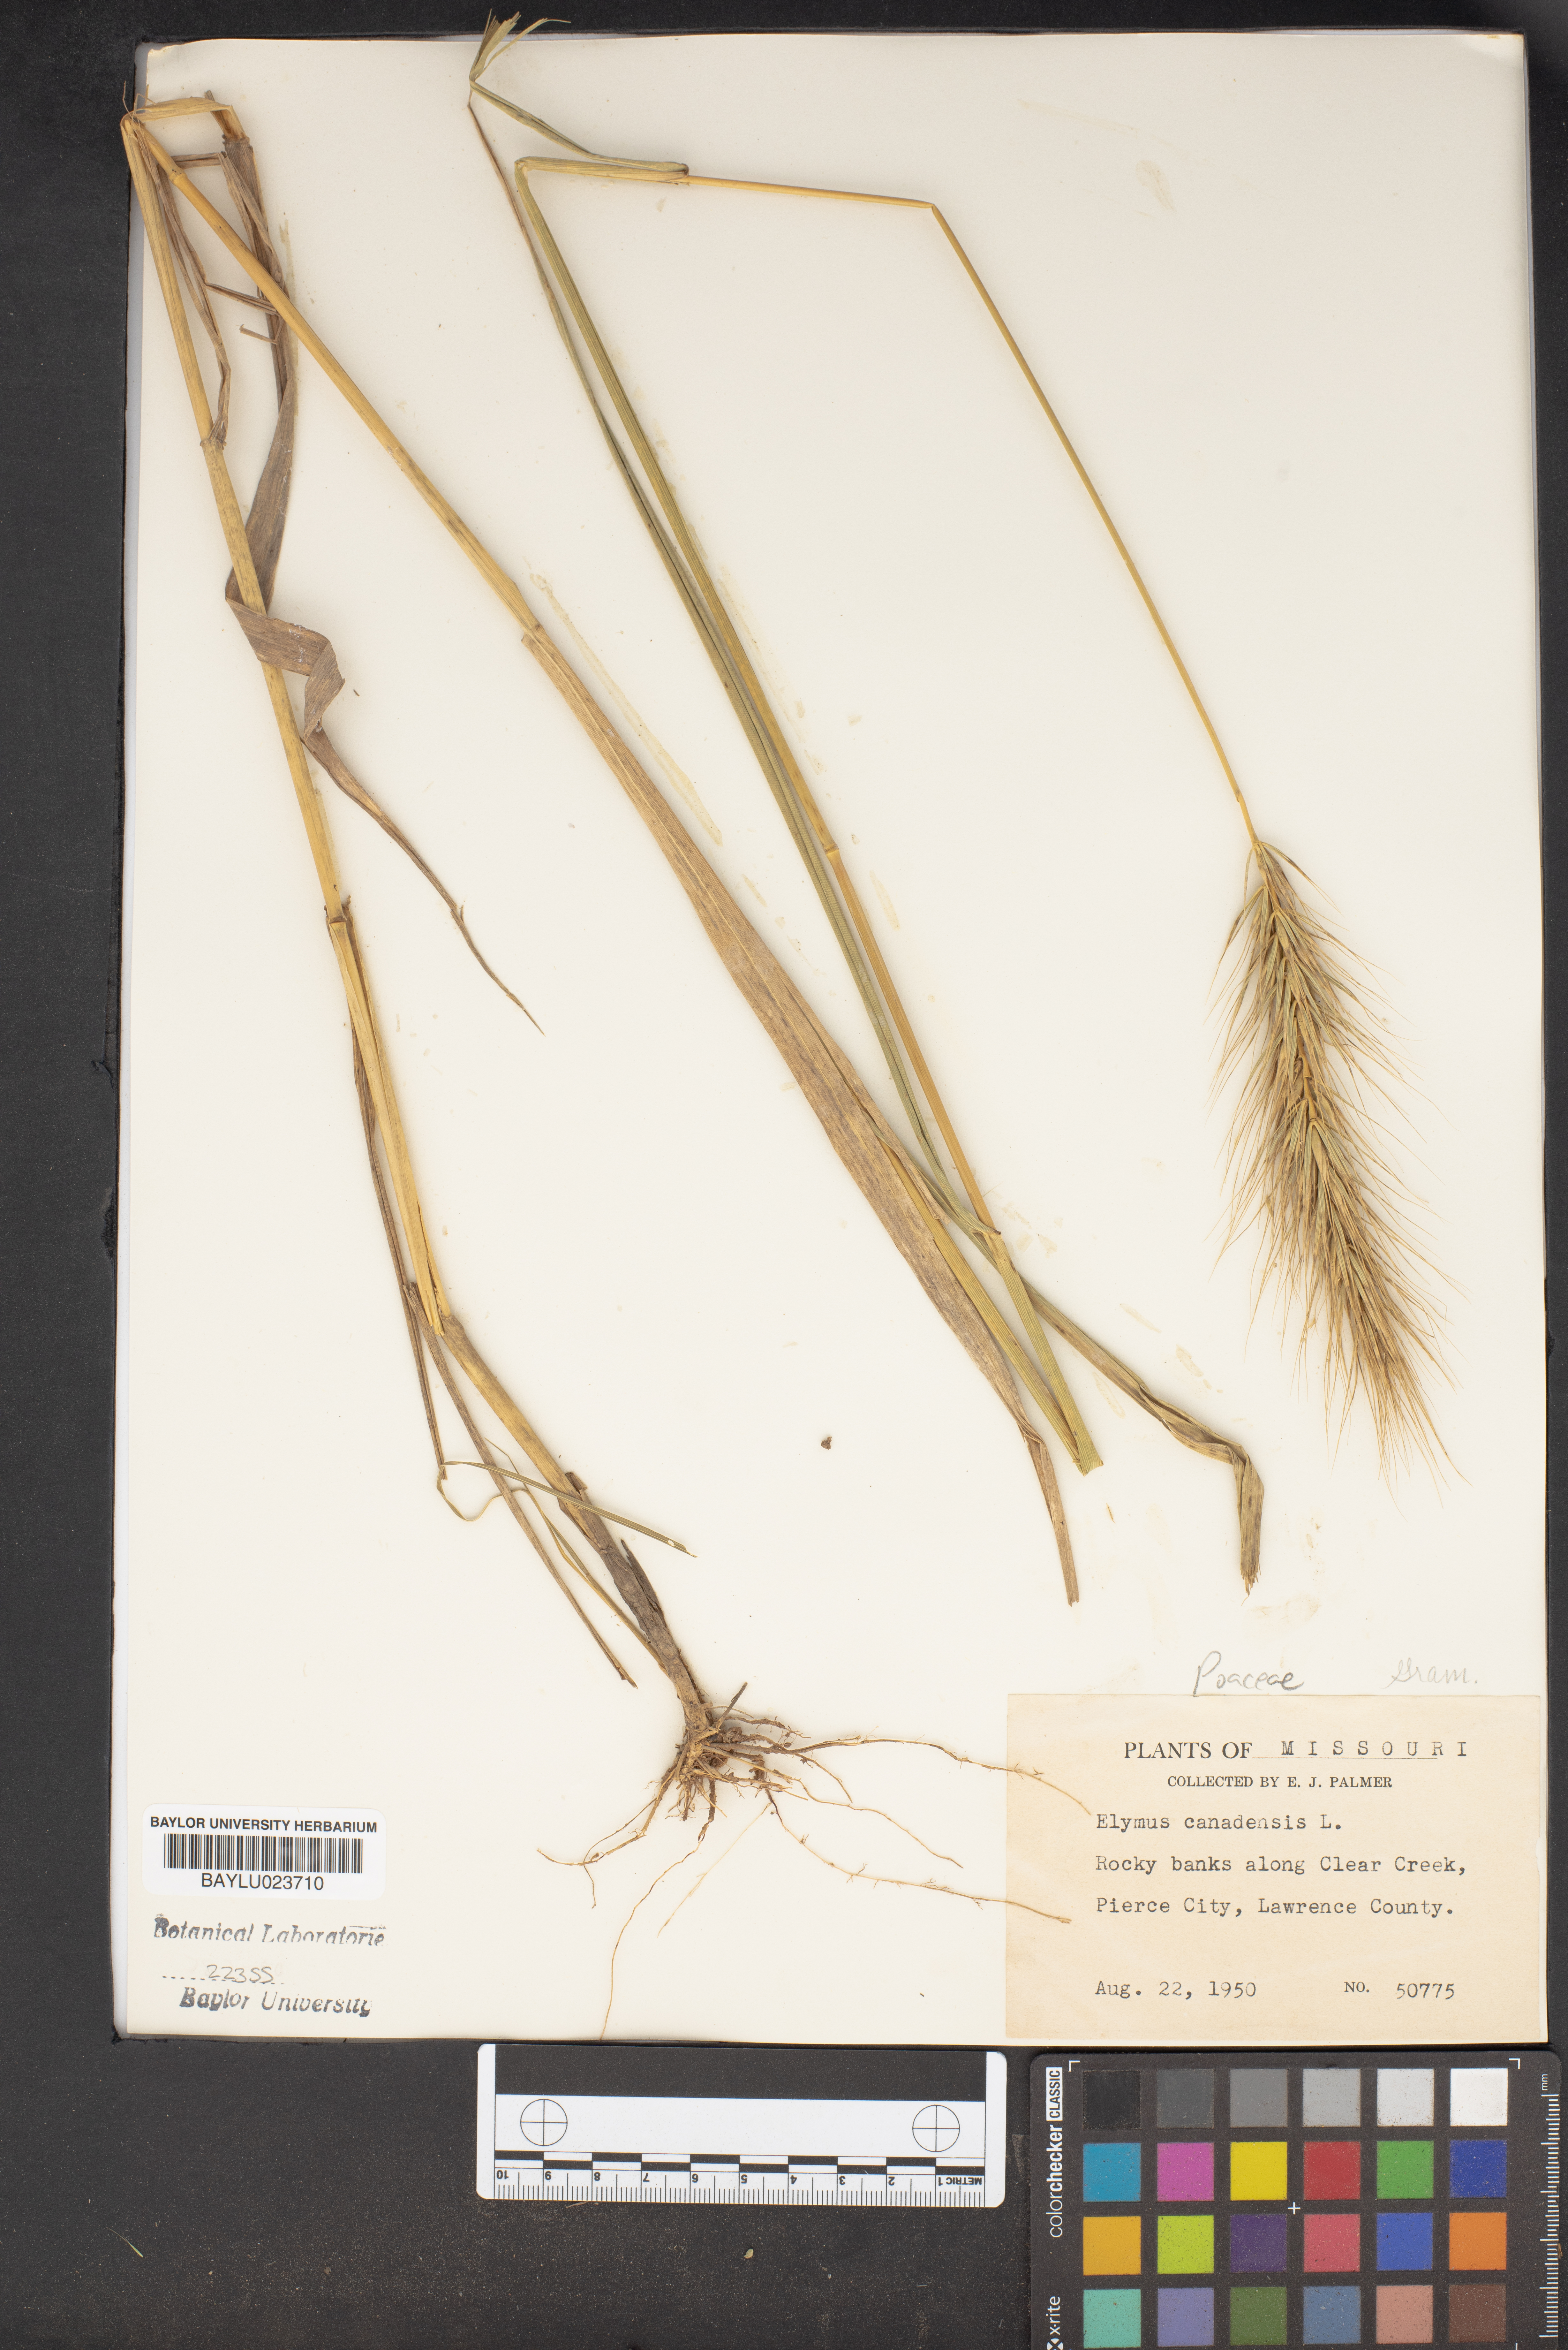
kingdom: Plantae
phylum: Tracheophyta
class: Liliopsida
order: Poales
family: Poaceae
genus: Elymus
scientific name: Elymus canadensis
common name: Canada wild rye
